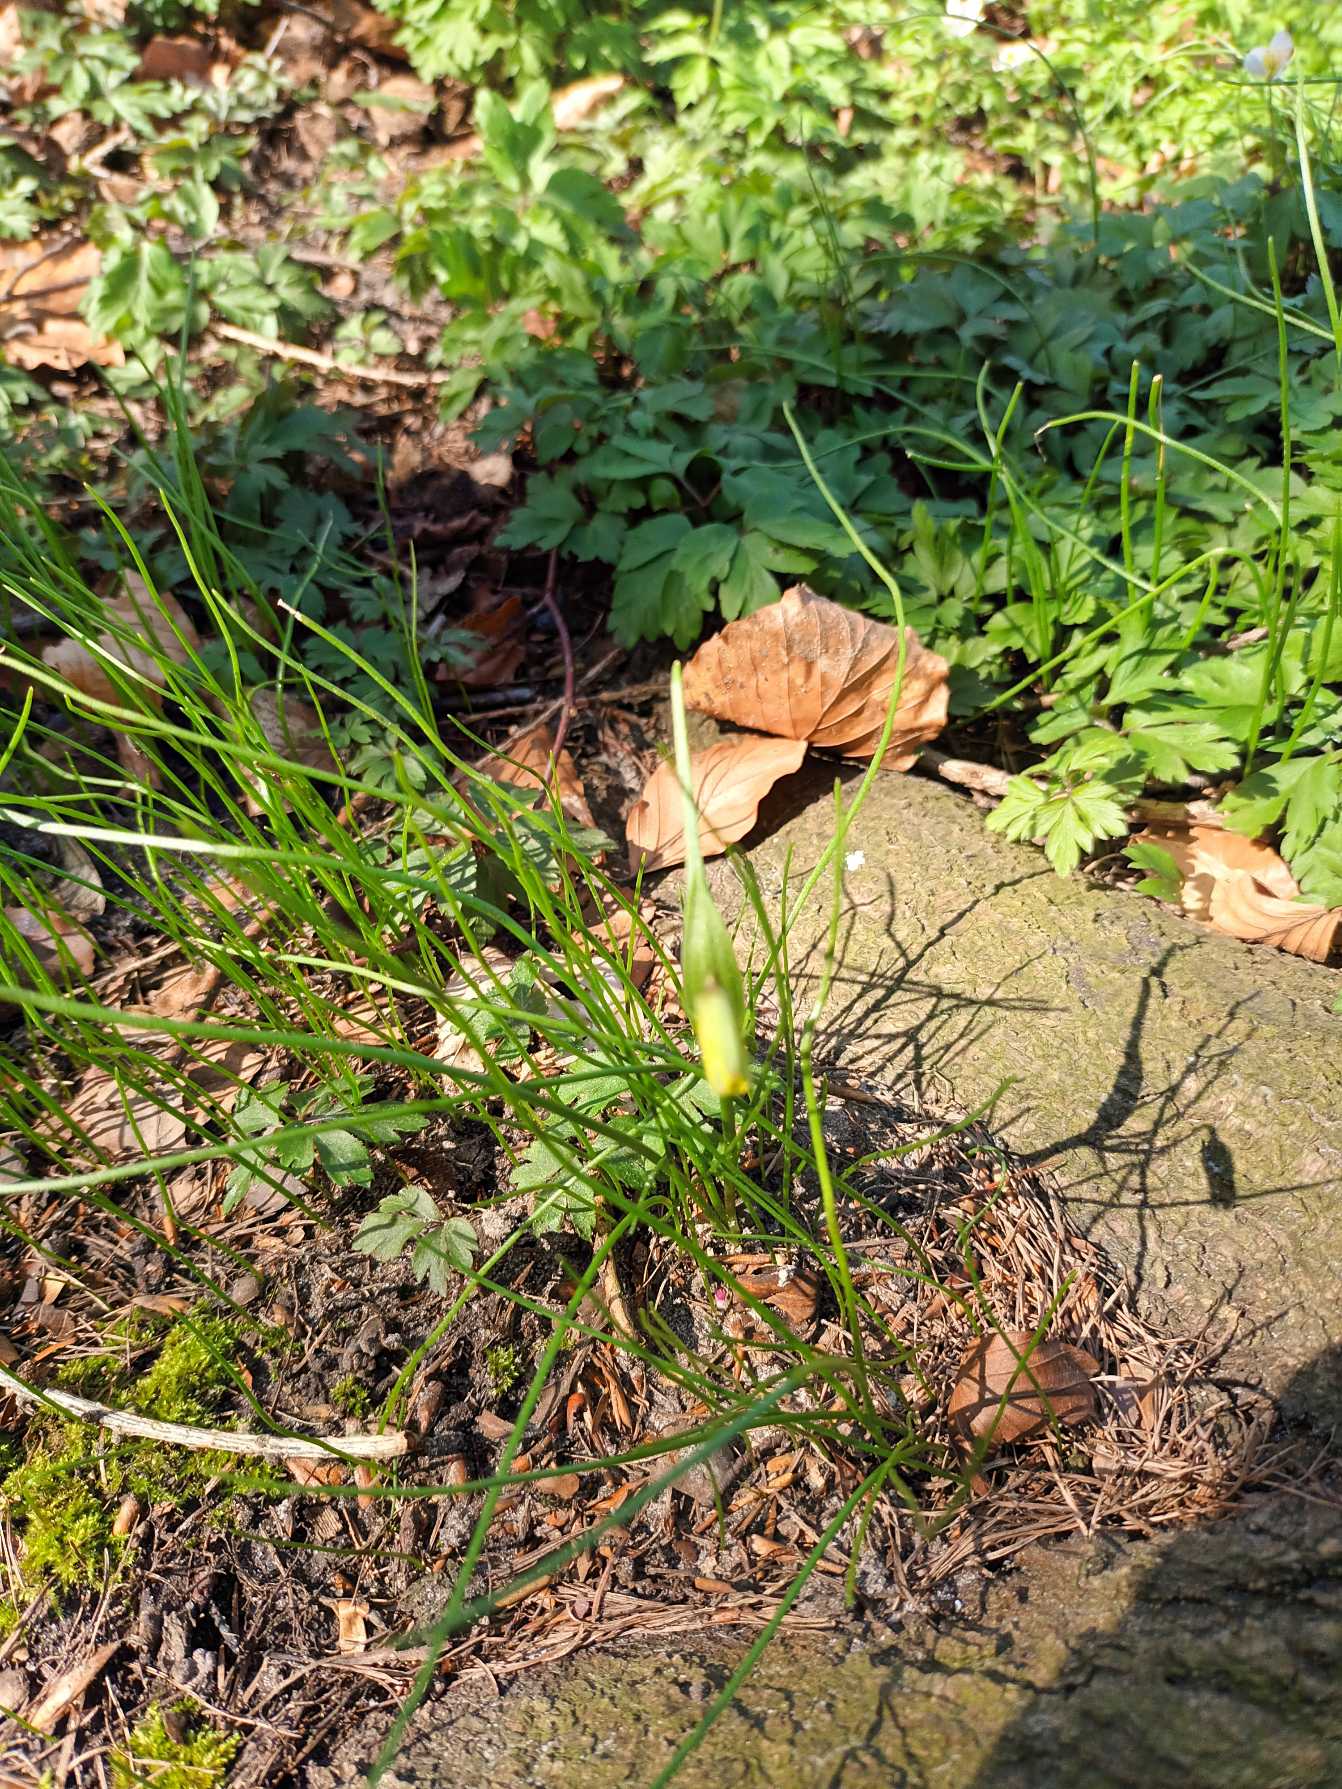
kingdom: Plantae
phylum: Tracheophyta
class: Liliopsida
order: Liliales
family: Liliaceae
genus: Gagea
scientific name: Gagea spathacea
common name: Hylster-guldstjerne
